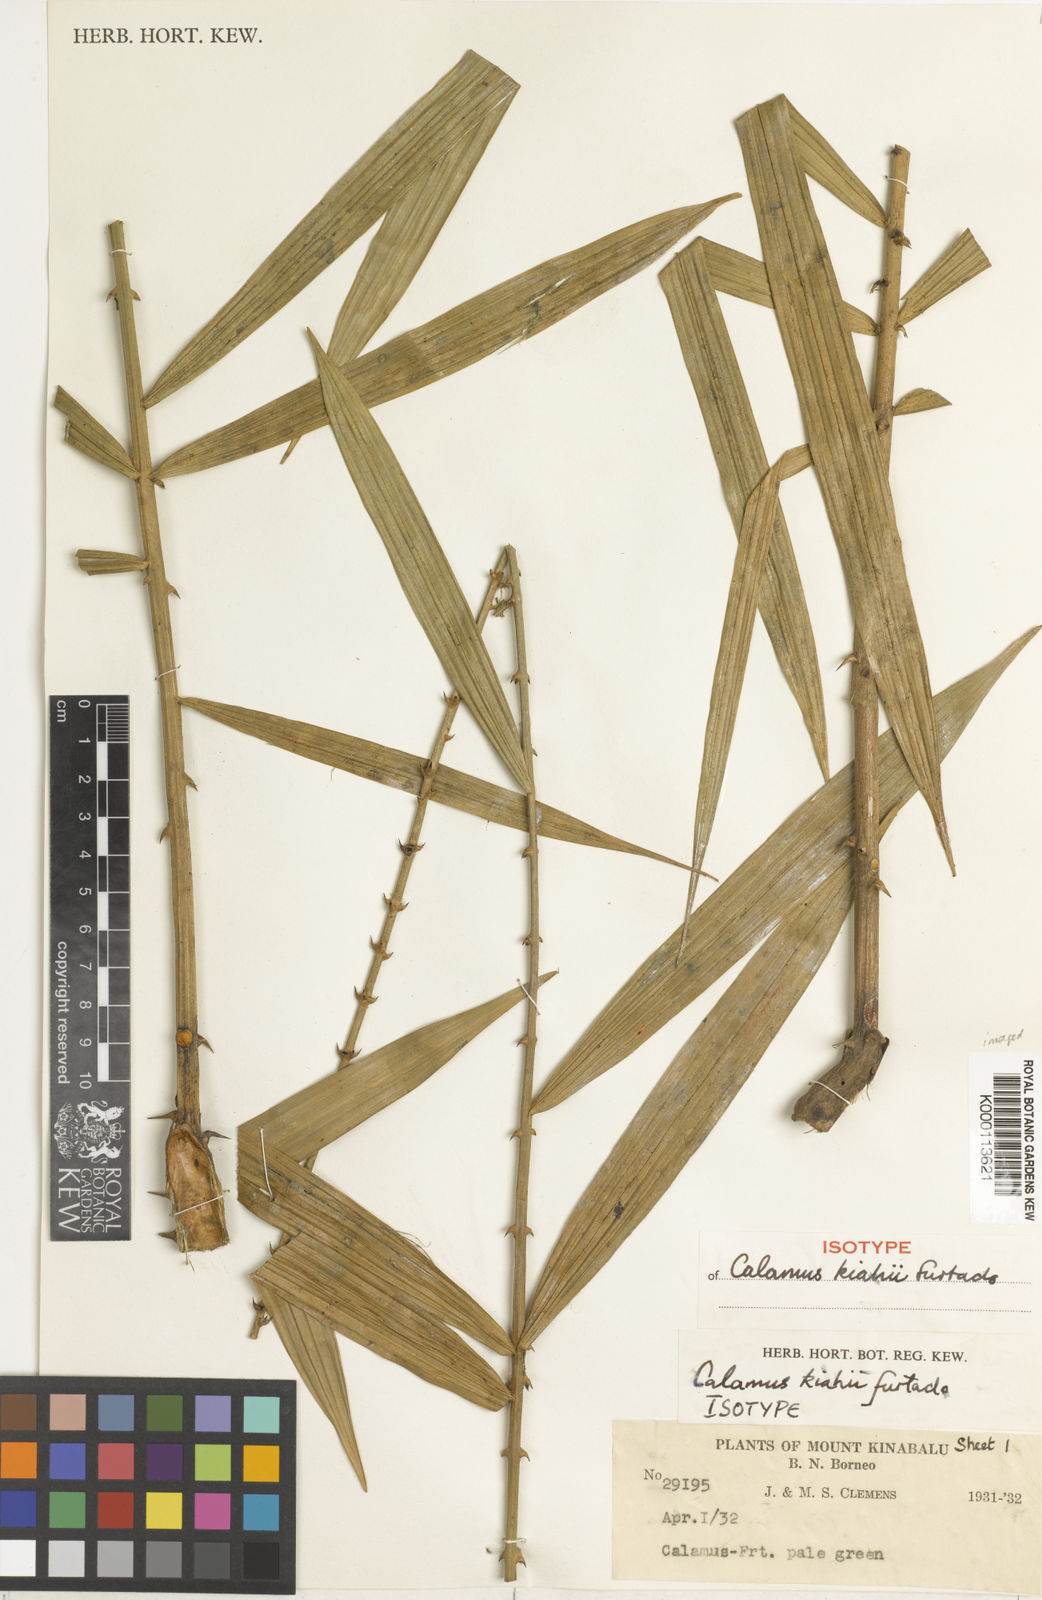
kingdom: Plantae
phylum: Tracheophyta
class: Liliopsida
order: Arecales
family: Arecaceae
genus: Calamus
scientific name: Calamus plicatus
